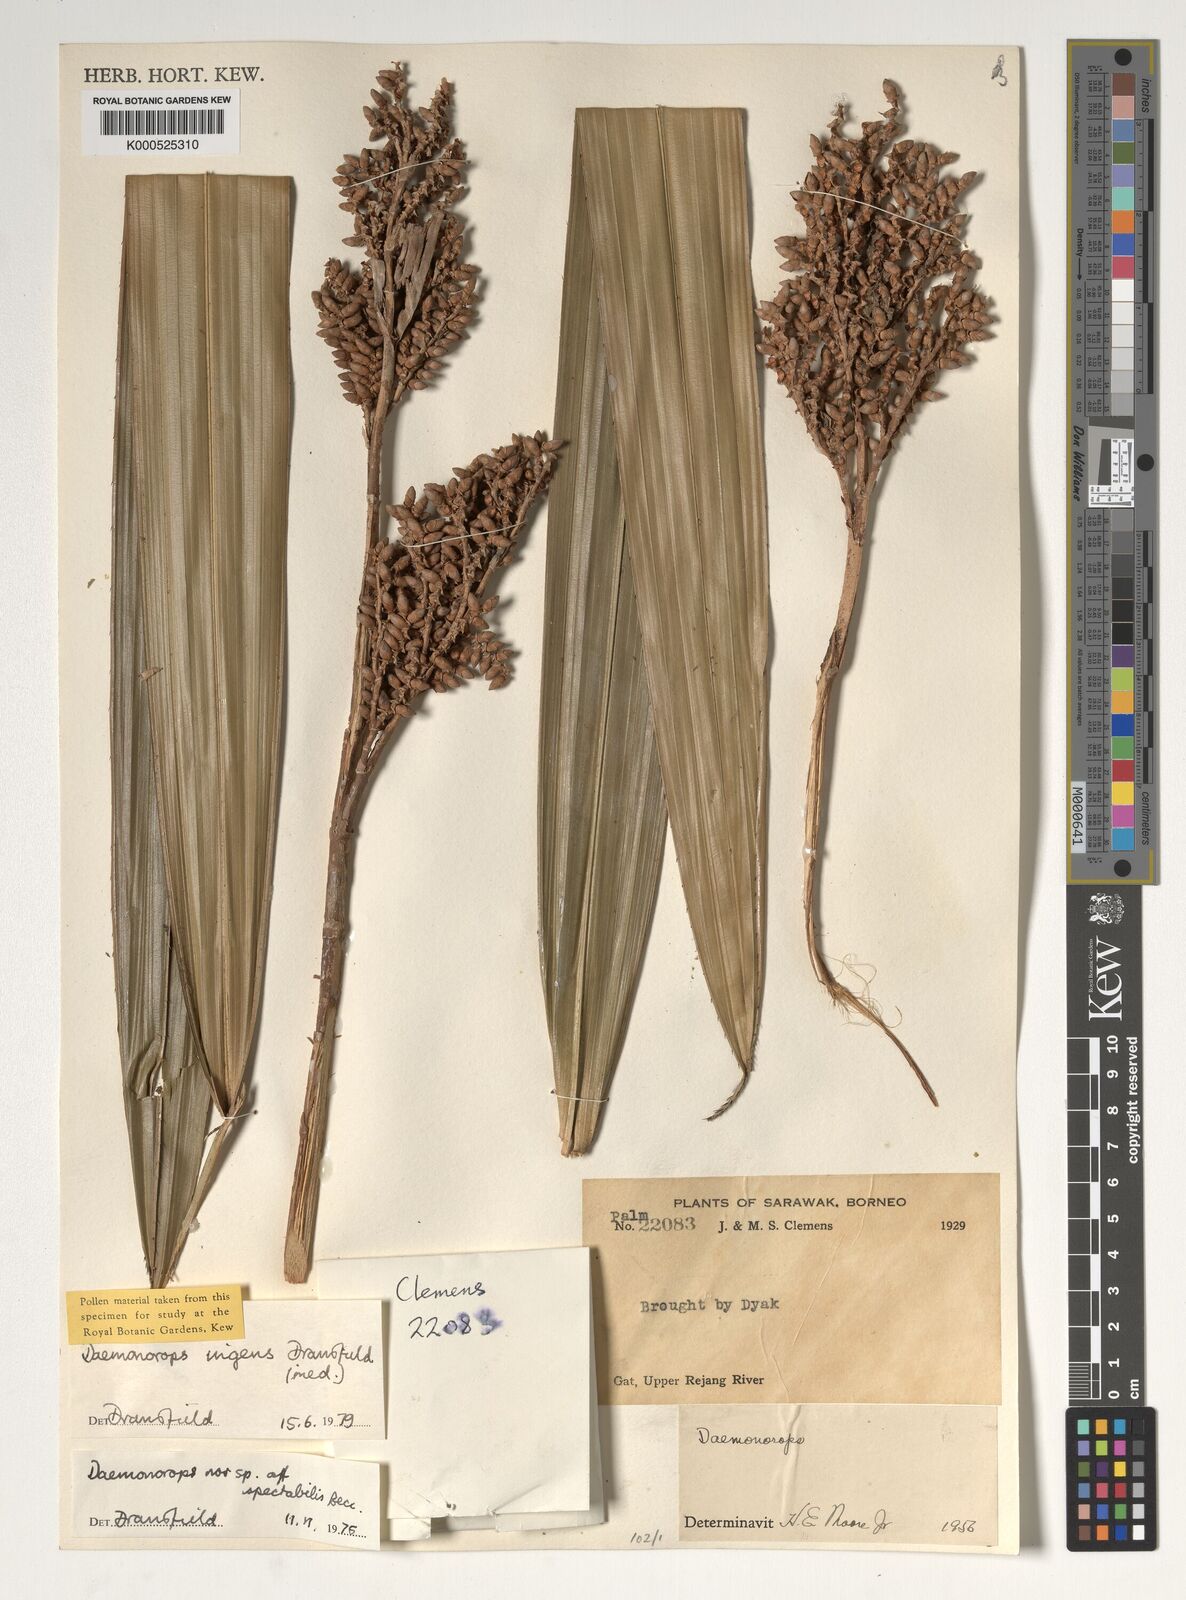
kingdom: Plantae
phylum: Tracheophyta
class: Liliopsida
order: Arecales
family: Arecaceae
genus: Calamus
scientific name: Calamus ingens
